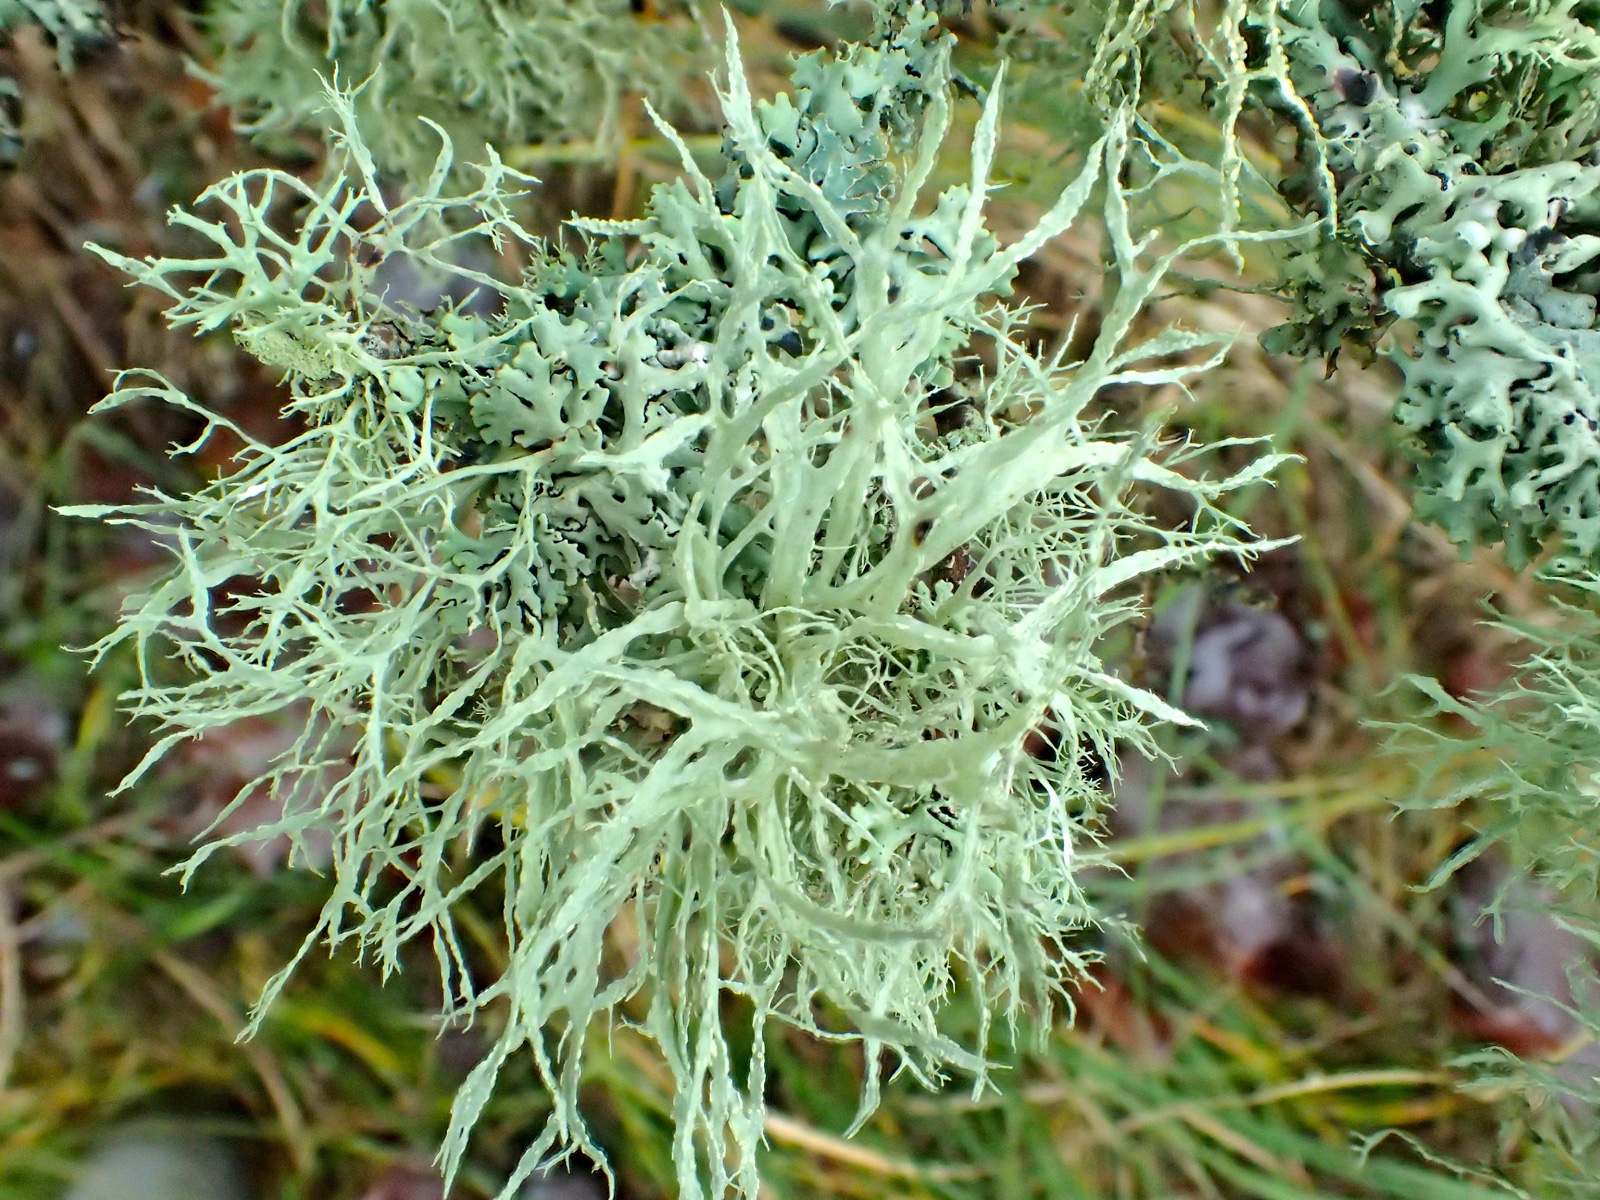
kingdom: Fungi
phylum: Ascomycota
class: Lecanoromycetes
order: Lecanorales
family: Ramalinaceae
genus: Ramalina
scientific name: Ramalina farinacea
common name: melet grenlav
